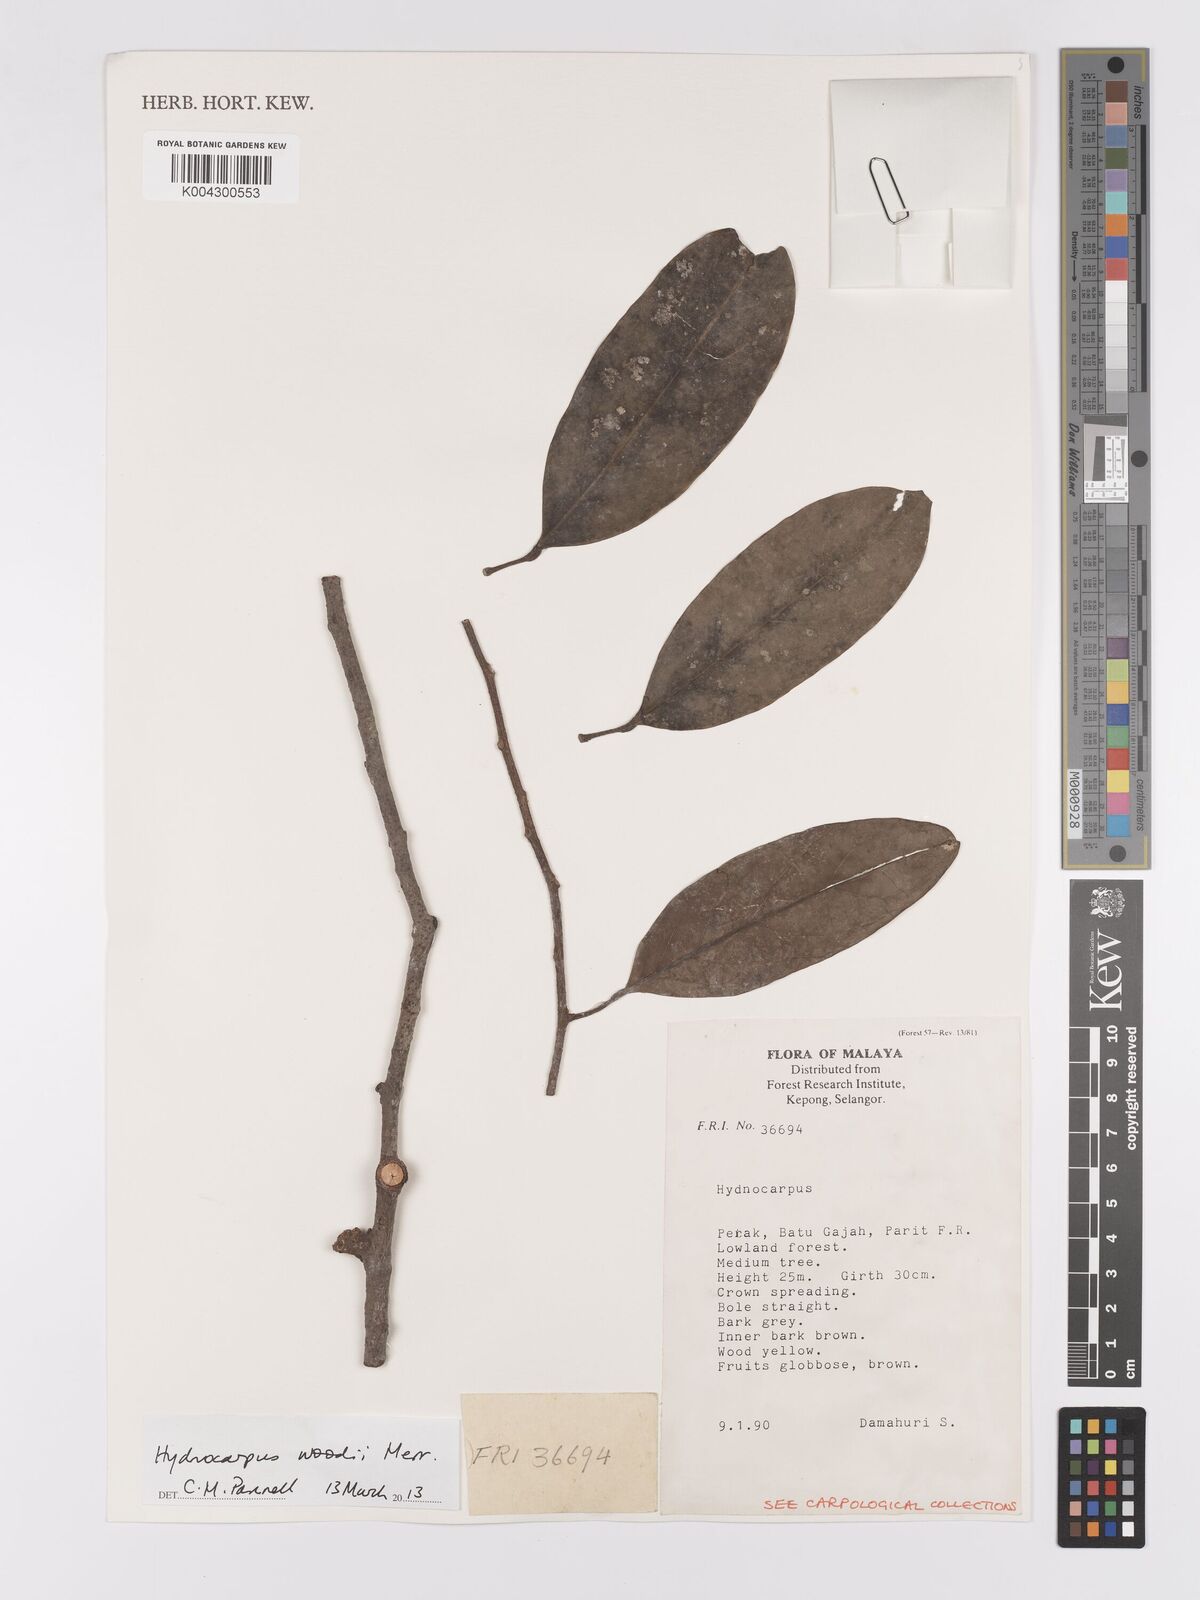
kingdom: Plantae
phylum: Tracheophyta
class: Magnoliopsida
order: Malpighiales
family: Achariaceae
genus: Hydnocarpus
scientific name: Hydnocarpus woodii
